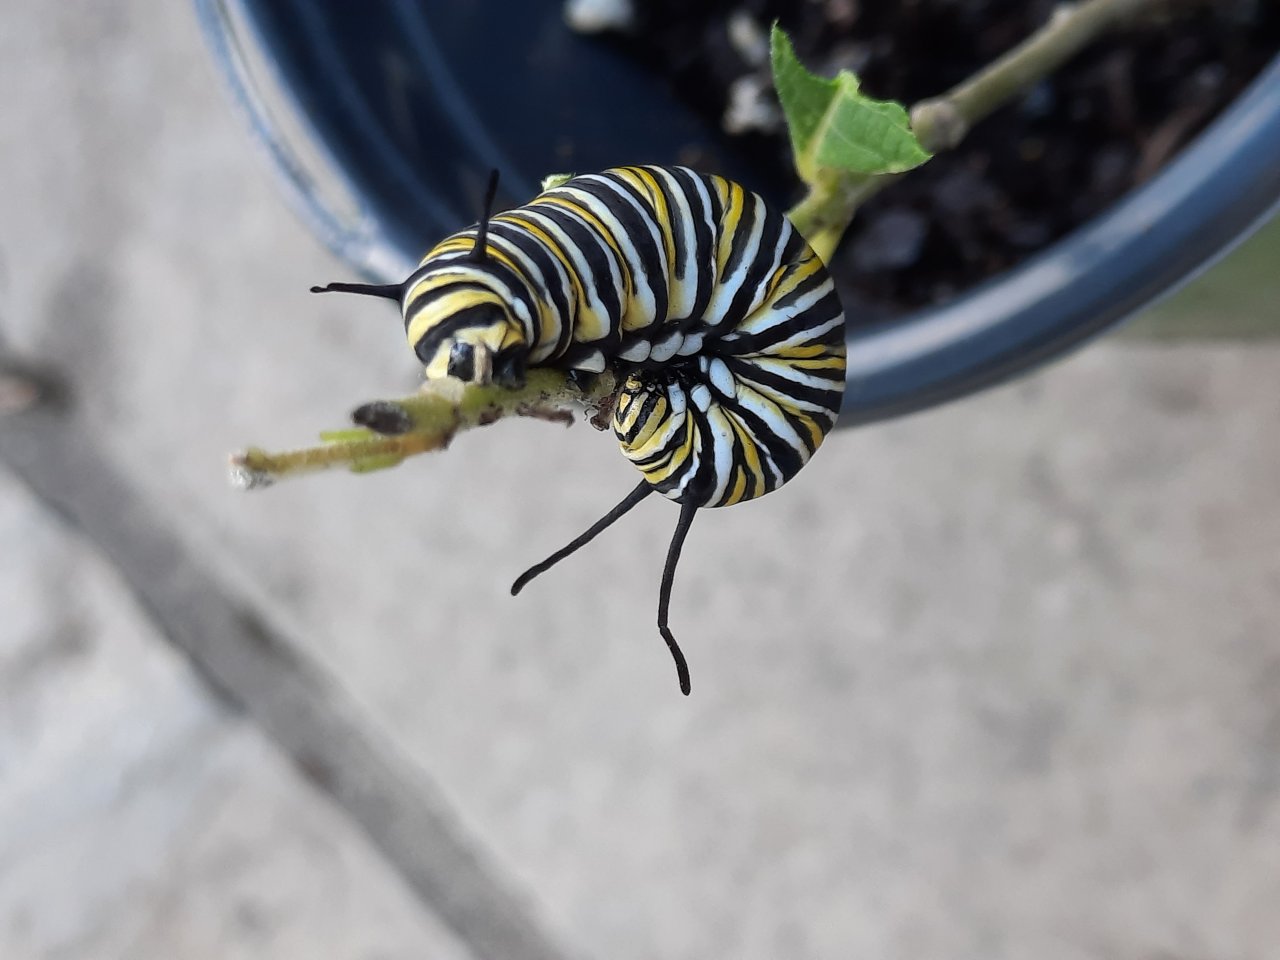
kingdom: Animalia
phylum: Arthropoda
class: Insecta
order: Lepidoptera
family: Nymphalidae
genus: Danaus
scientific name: Danaus plexippus
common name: Monarch
